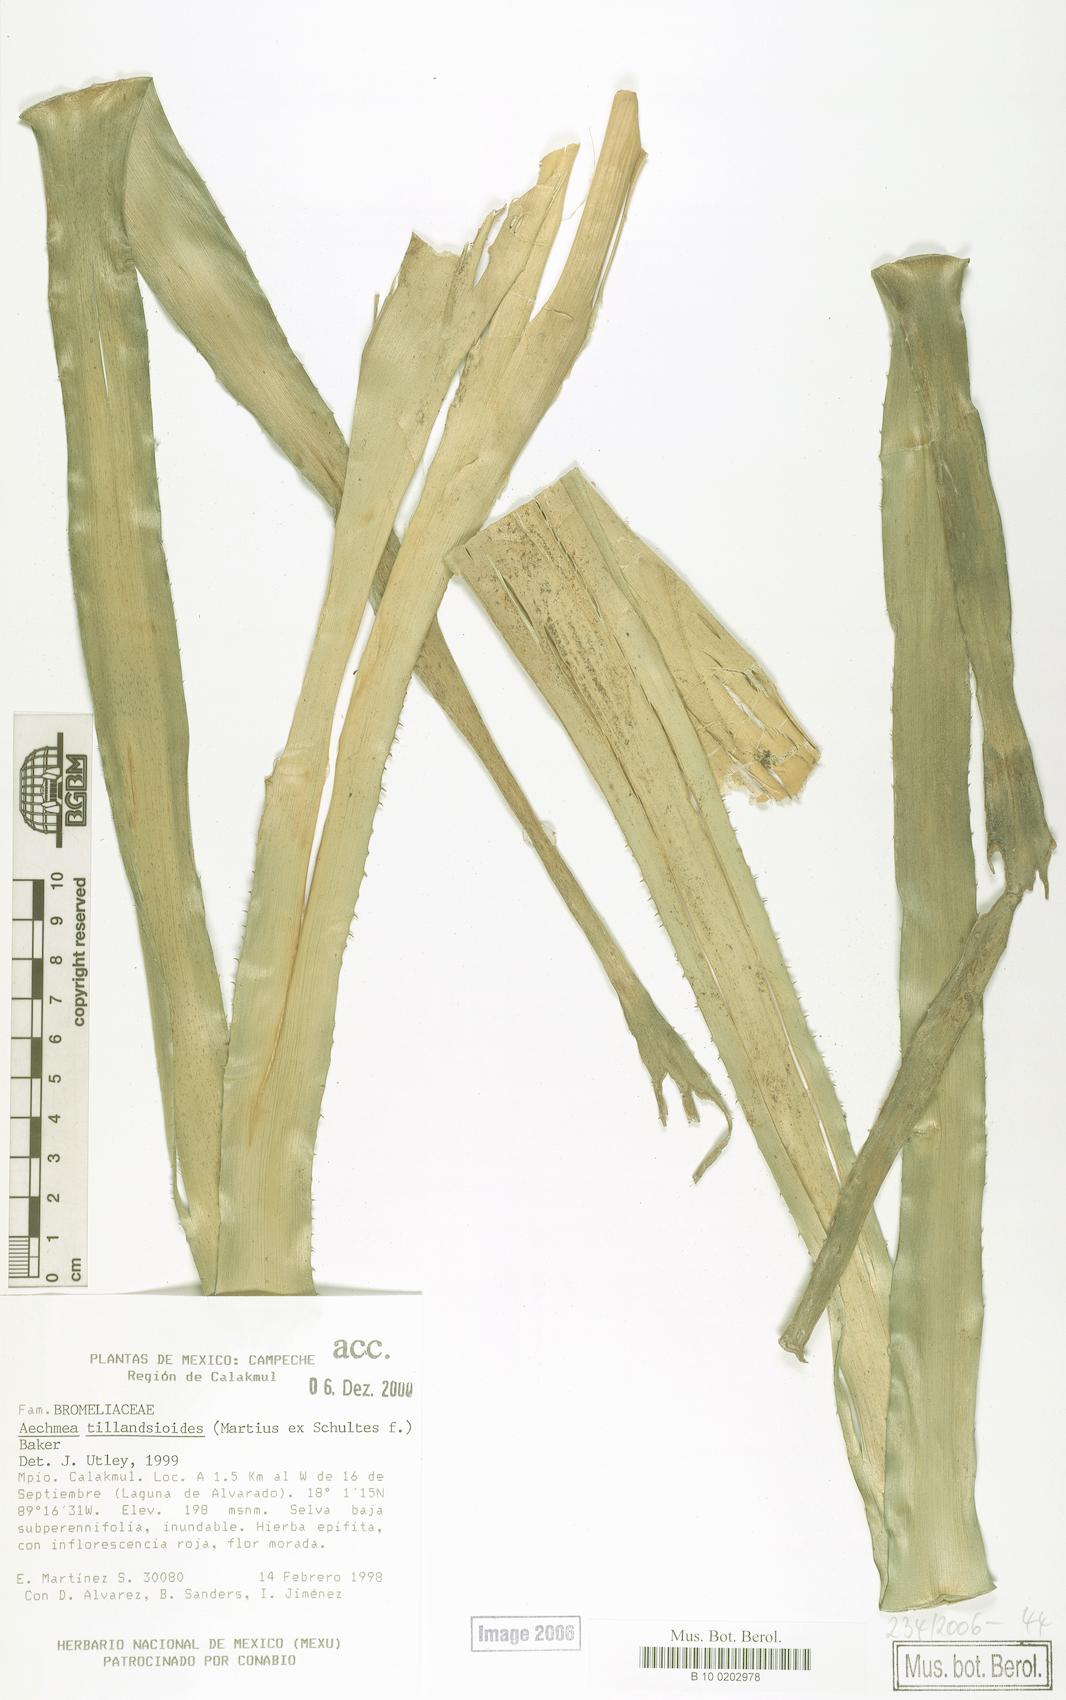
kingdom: Plantae
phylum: Tracheophyta
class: Liliopsida
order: Poales
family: Bromeliaceae
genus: Aechmea
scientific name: Aechmea tillandsioides
